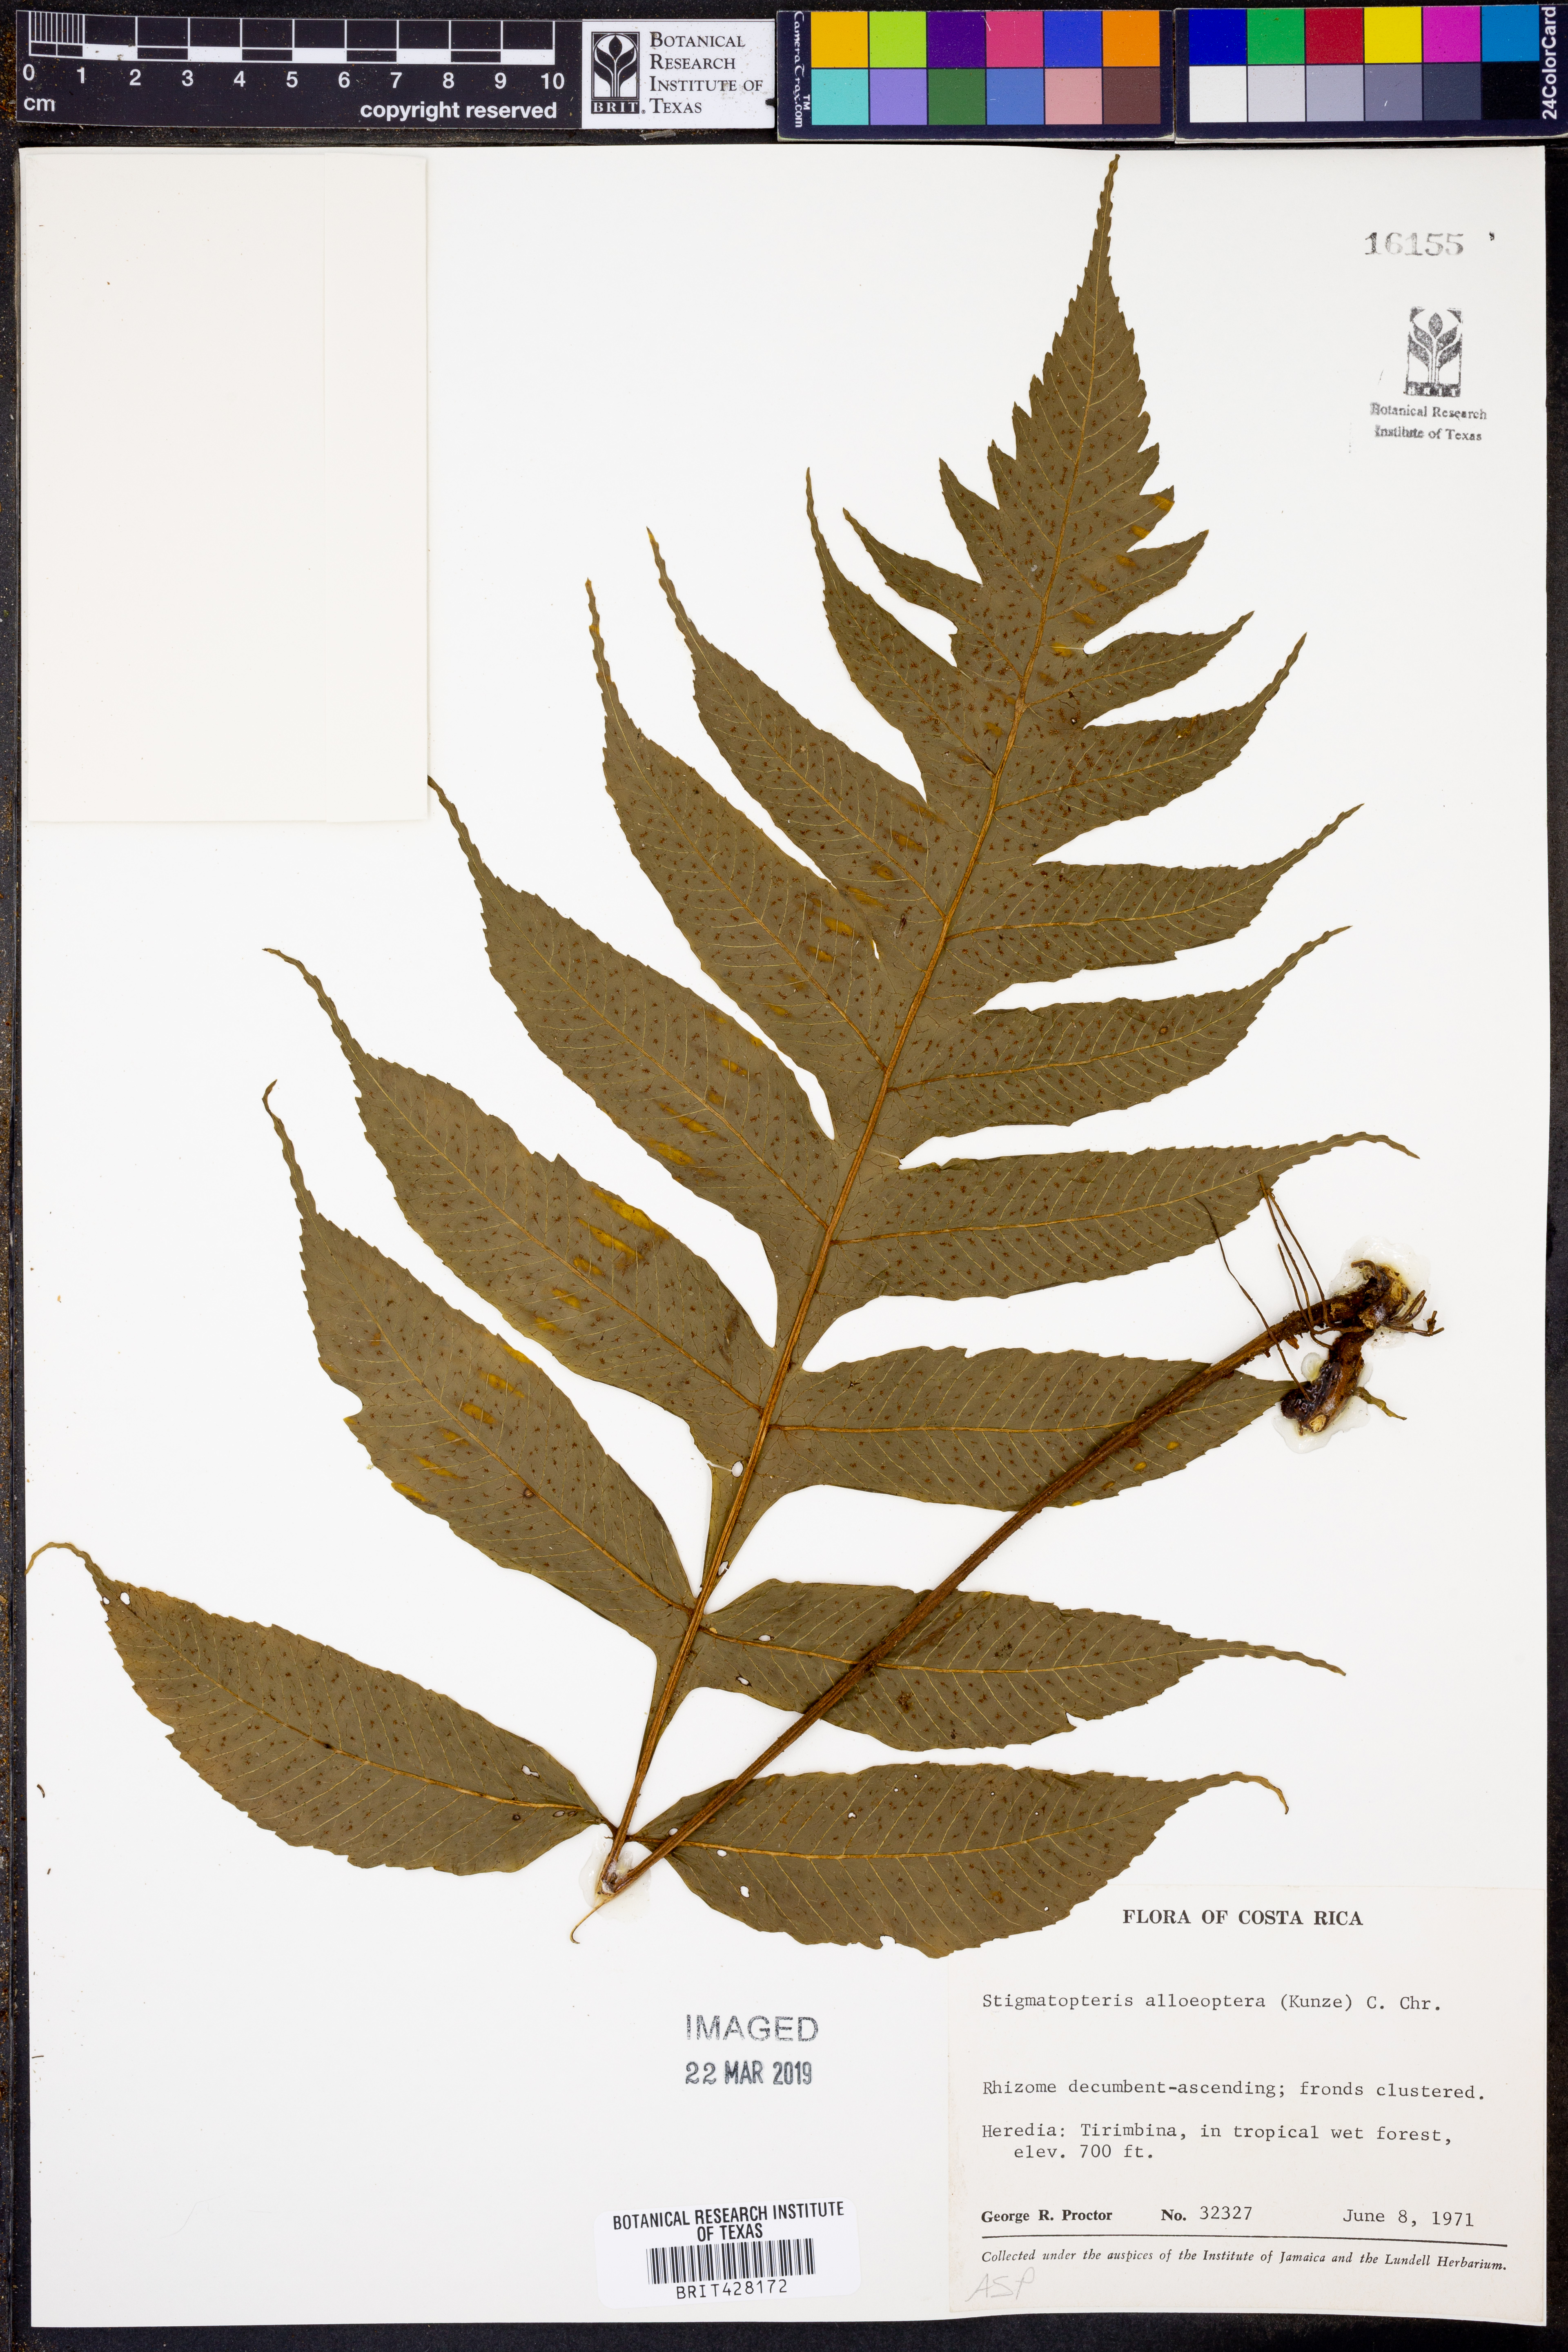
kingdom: Plantae
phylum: Tracheophyta
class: Polypodiopsida
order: Polypodiales
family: Dryopteridaceae
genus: Stigmatopteris
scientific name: Stigmatopteris alloeoptera
